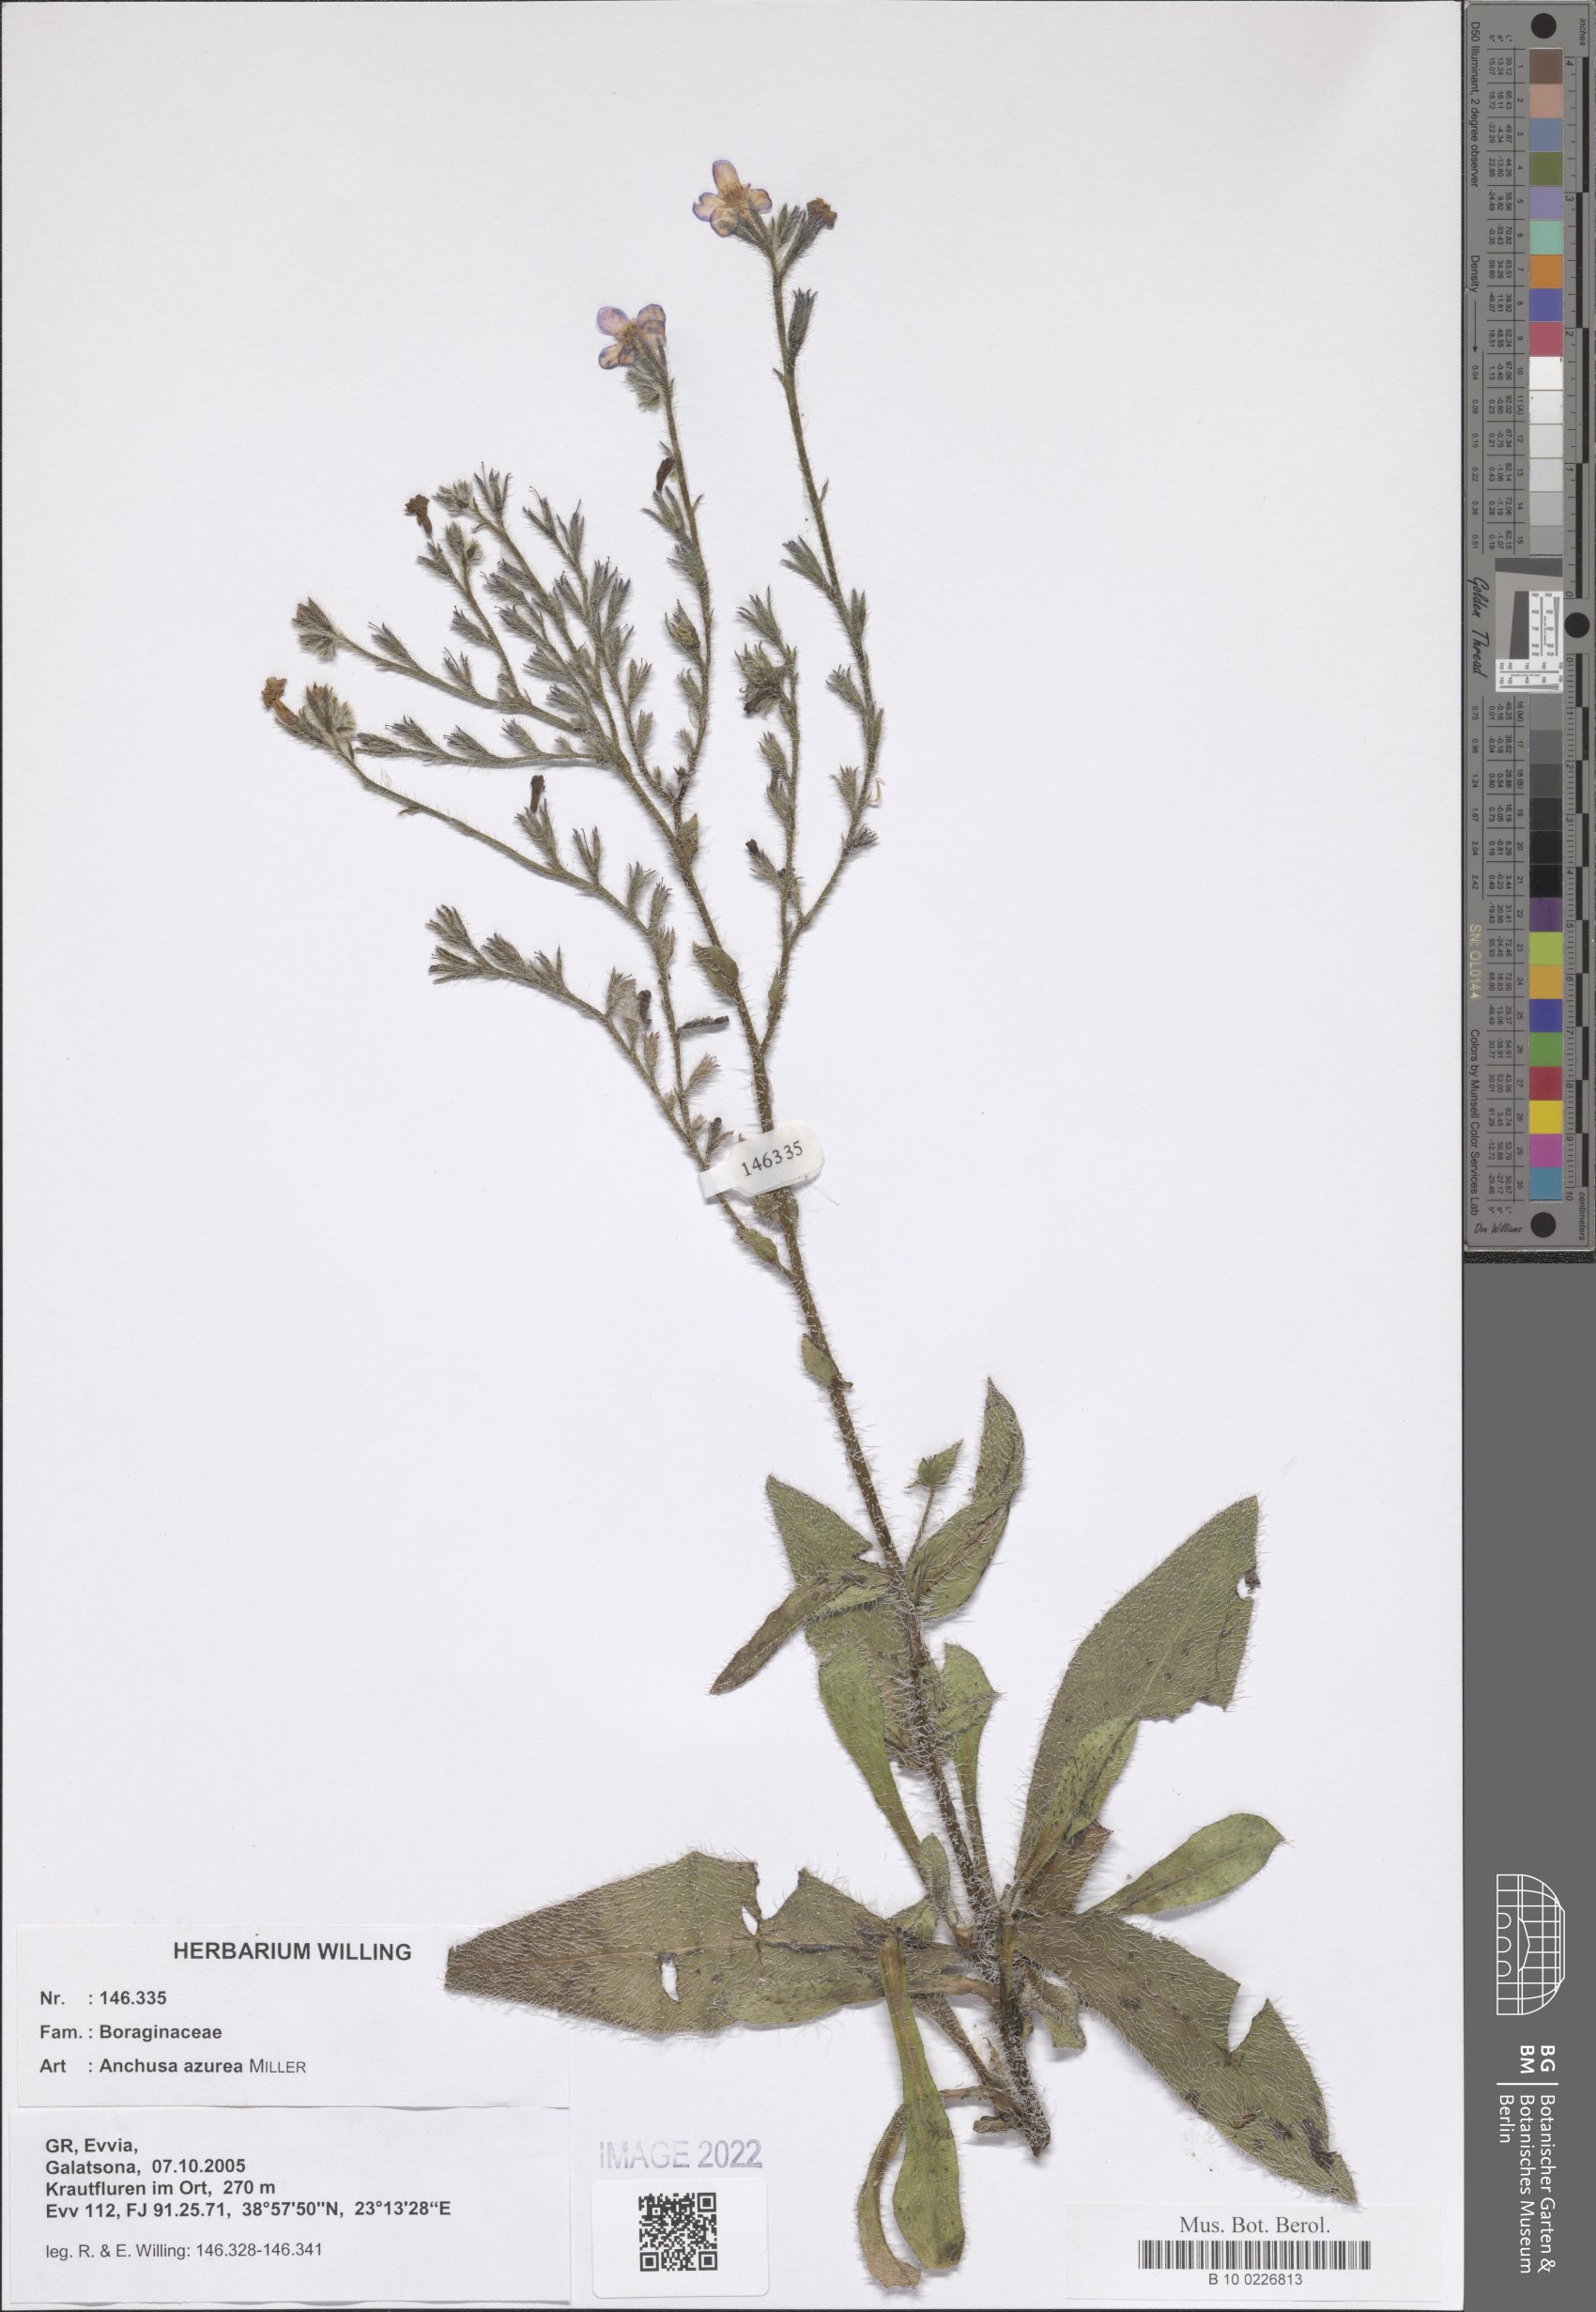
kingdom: Plantae
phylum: Tracheophyta
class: Magnoliopsida
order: Boraginales
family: Boraginaceae
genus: Anchusa
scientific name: Anchusa azurea
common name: Garden anchusa
